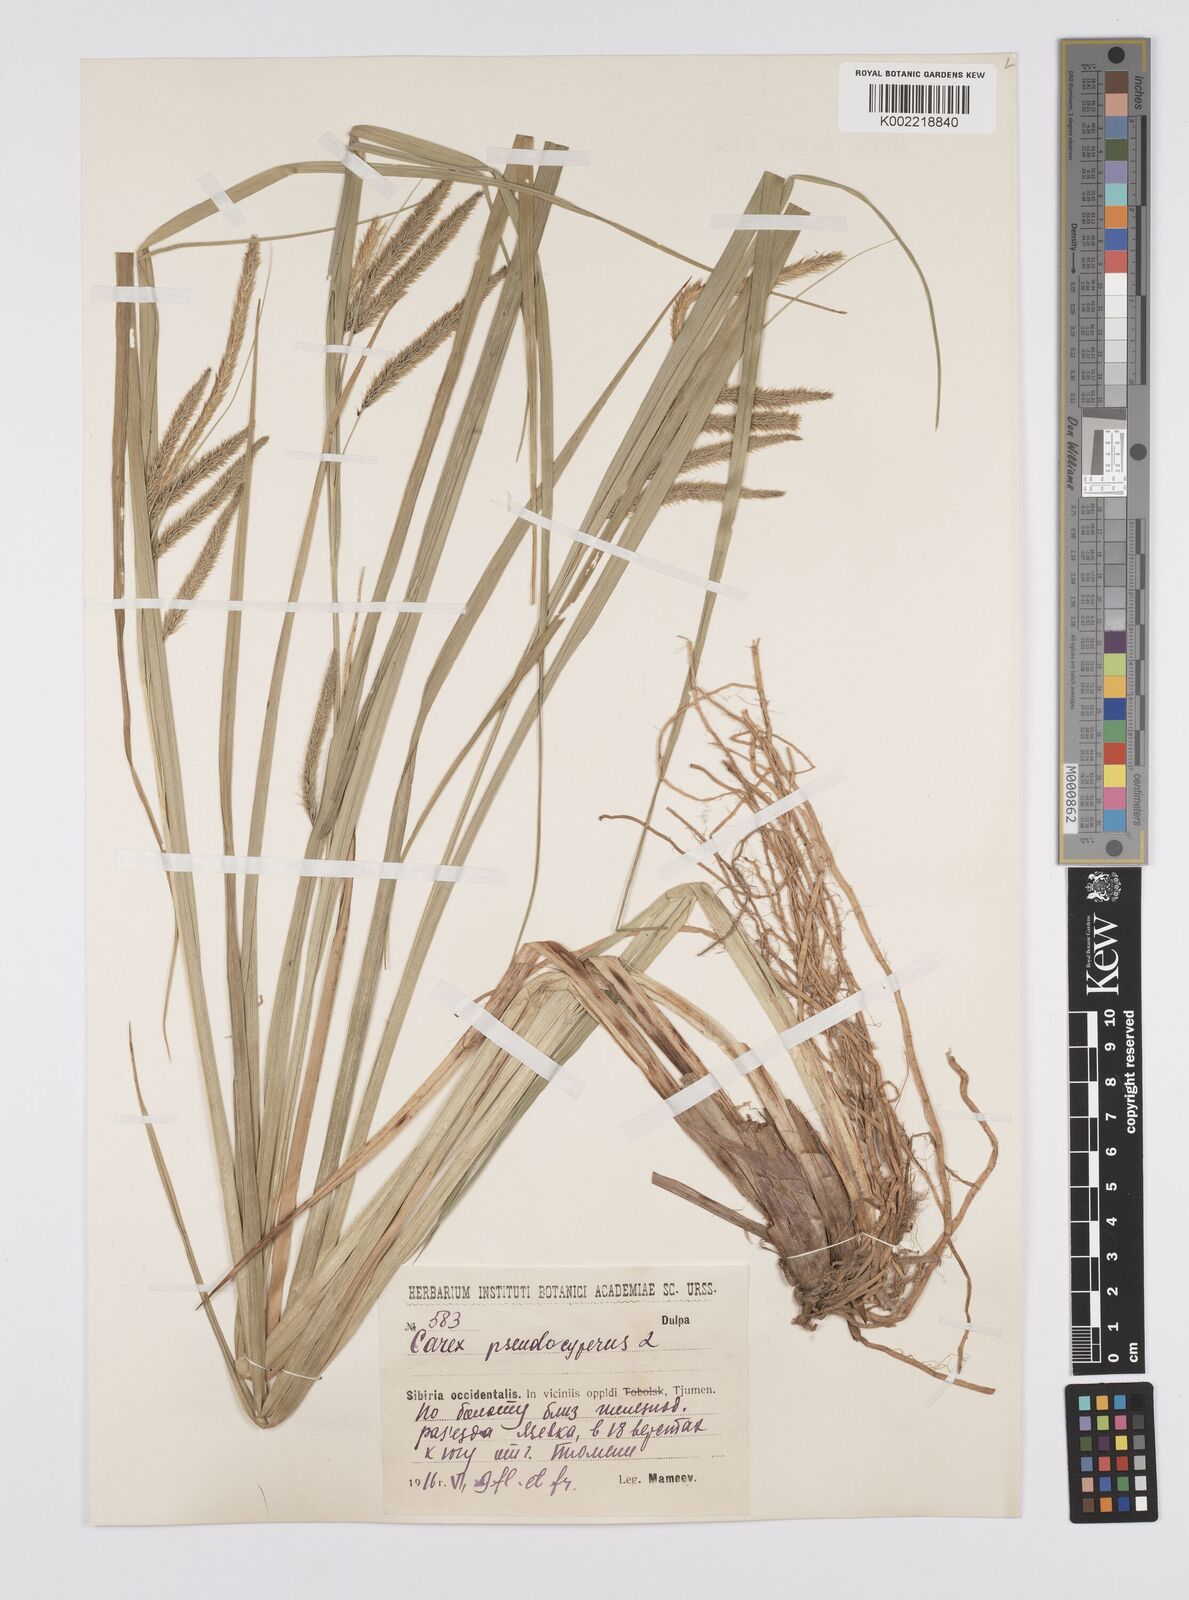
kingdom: Plantae
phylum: Tracheophyta
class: Liliopsida
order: Poales
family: Cyperaceae
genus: Carex
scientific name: Carex pseudocyperus
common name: Cyperus sedge
